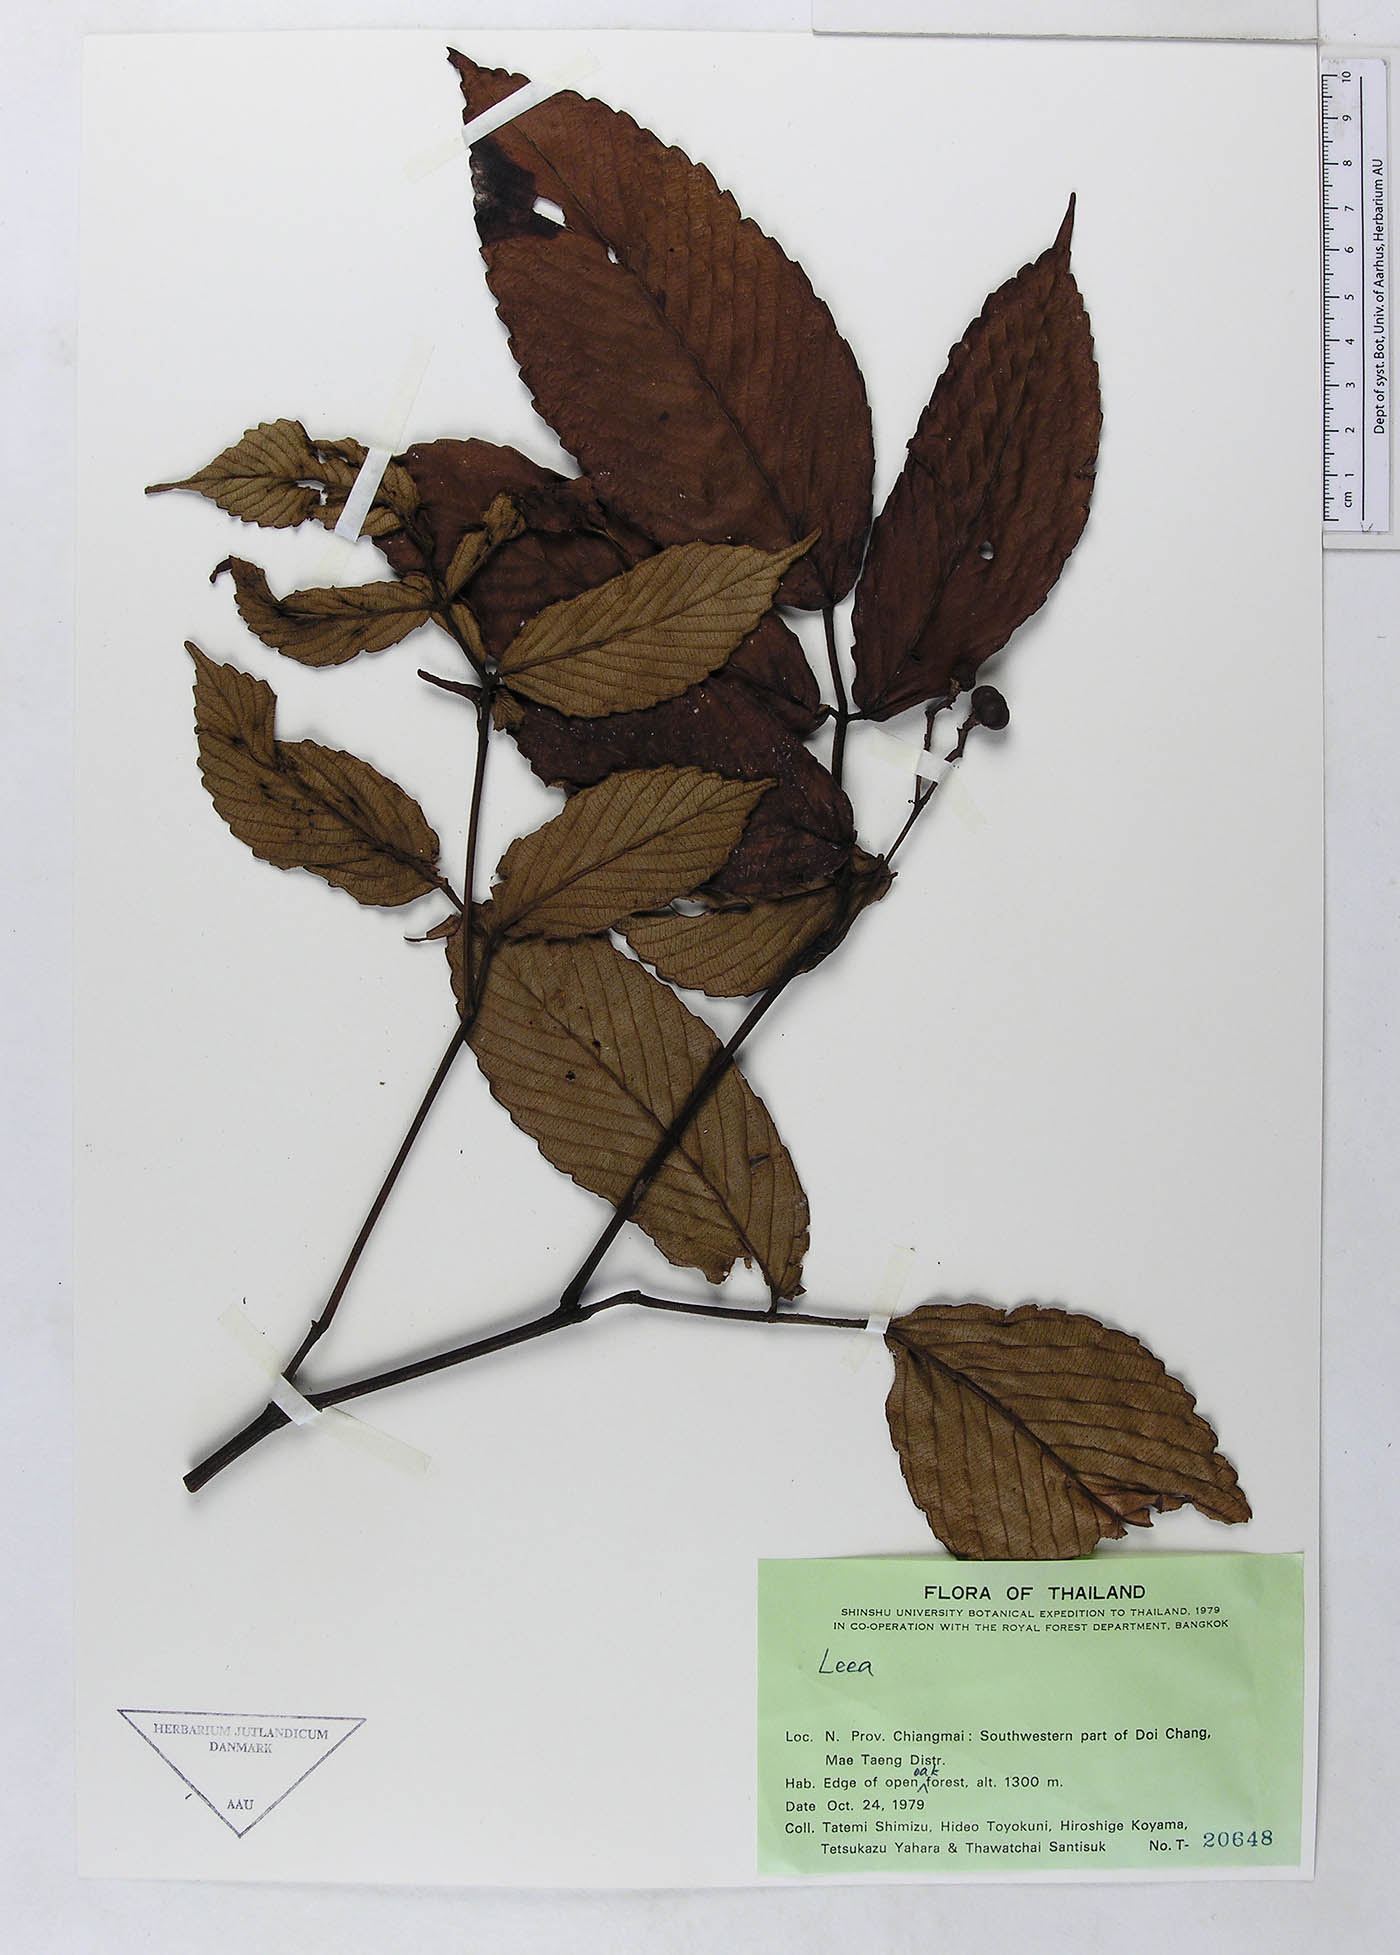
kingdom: Plantae
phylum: Tracheophyta
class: Magnoliopsida
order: Vitales
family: Vitaceae
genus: Leea
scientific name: Leea asiatica
